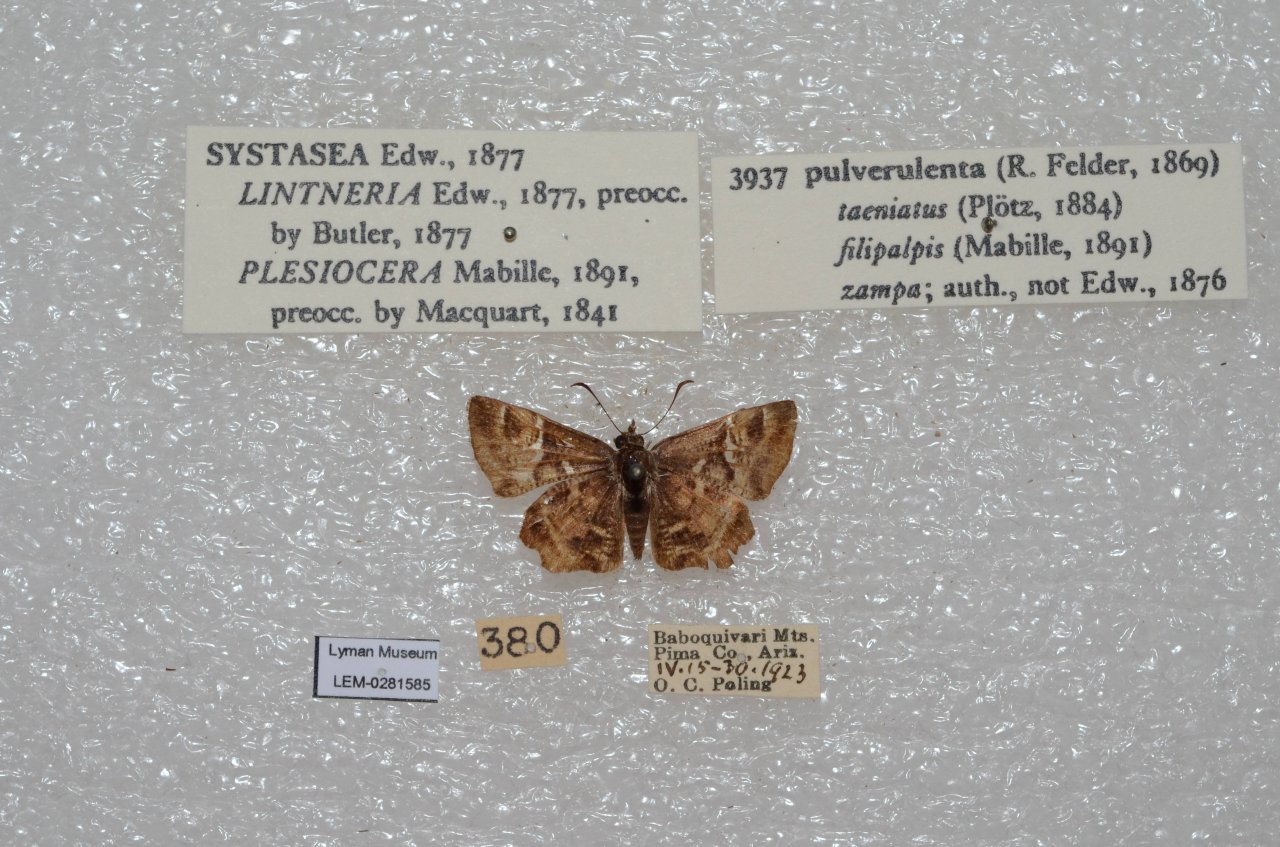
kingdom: Animalia
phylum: Arthropoda
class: Insecta
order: Lepidoptera
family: Hesperiidae
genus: Systasea
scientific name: Systasea pulverulenta
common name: Texas Powdered-Skipper
